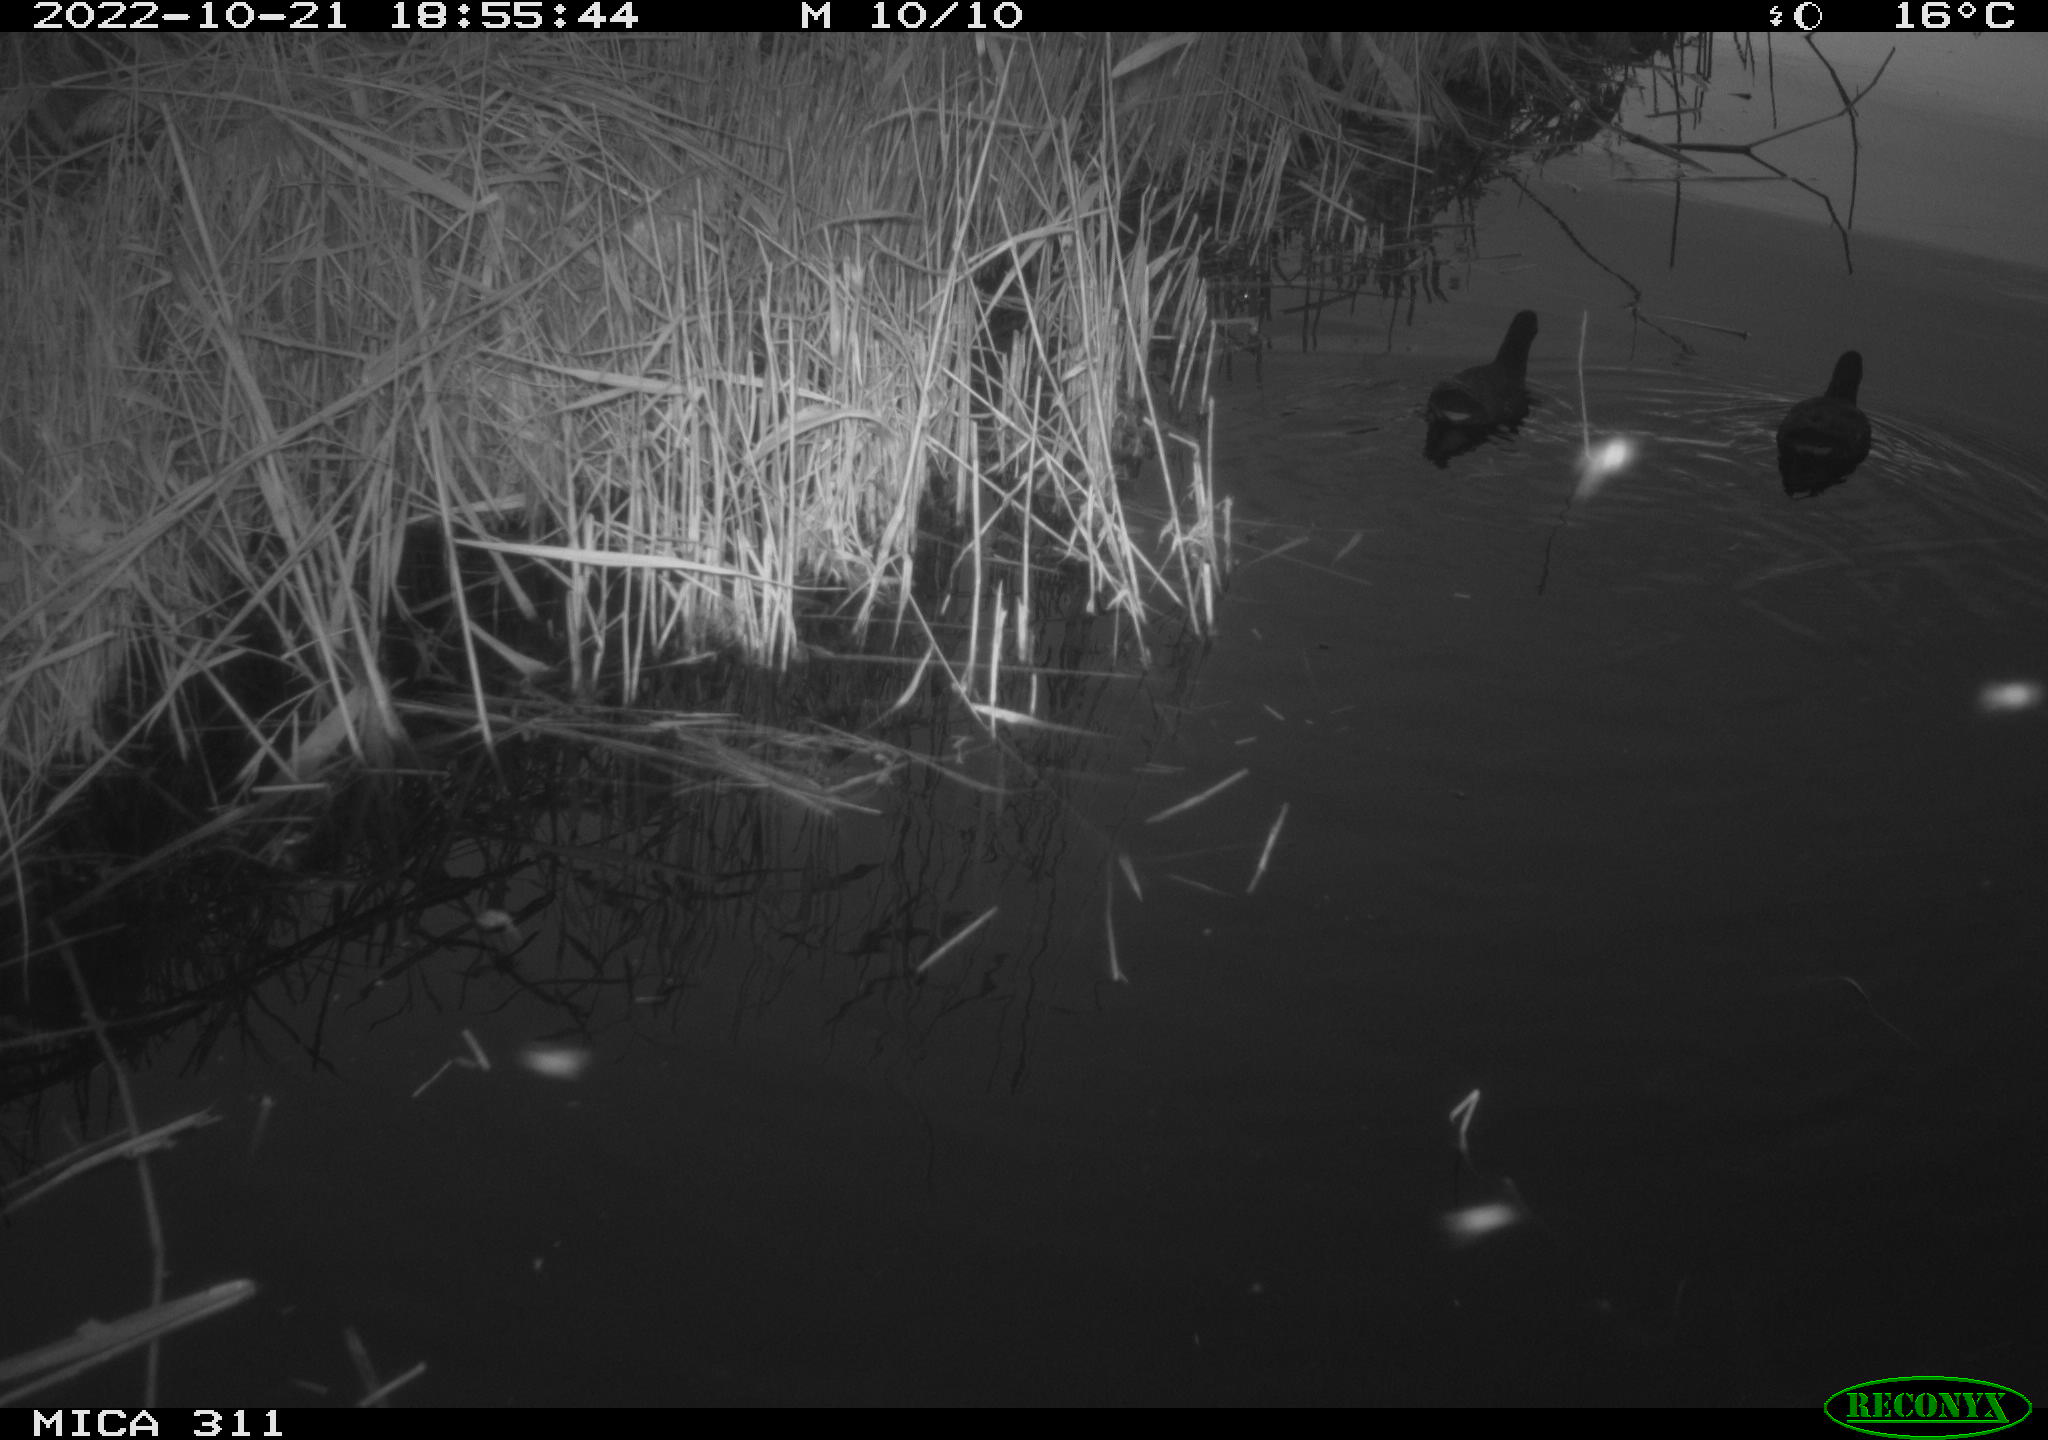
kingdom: Animalia
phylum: Chordata
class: Aves
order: Gruiformes
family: Rallidae
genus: Gallinula
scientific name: Gallinula chloropus
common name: Common moorhen
